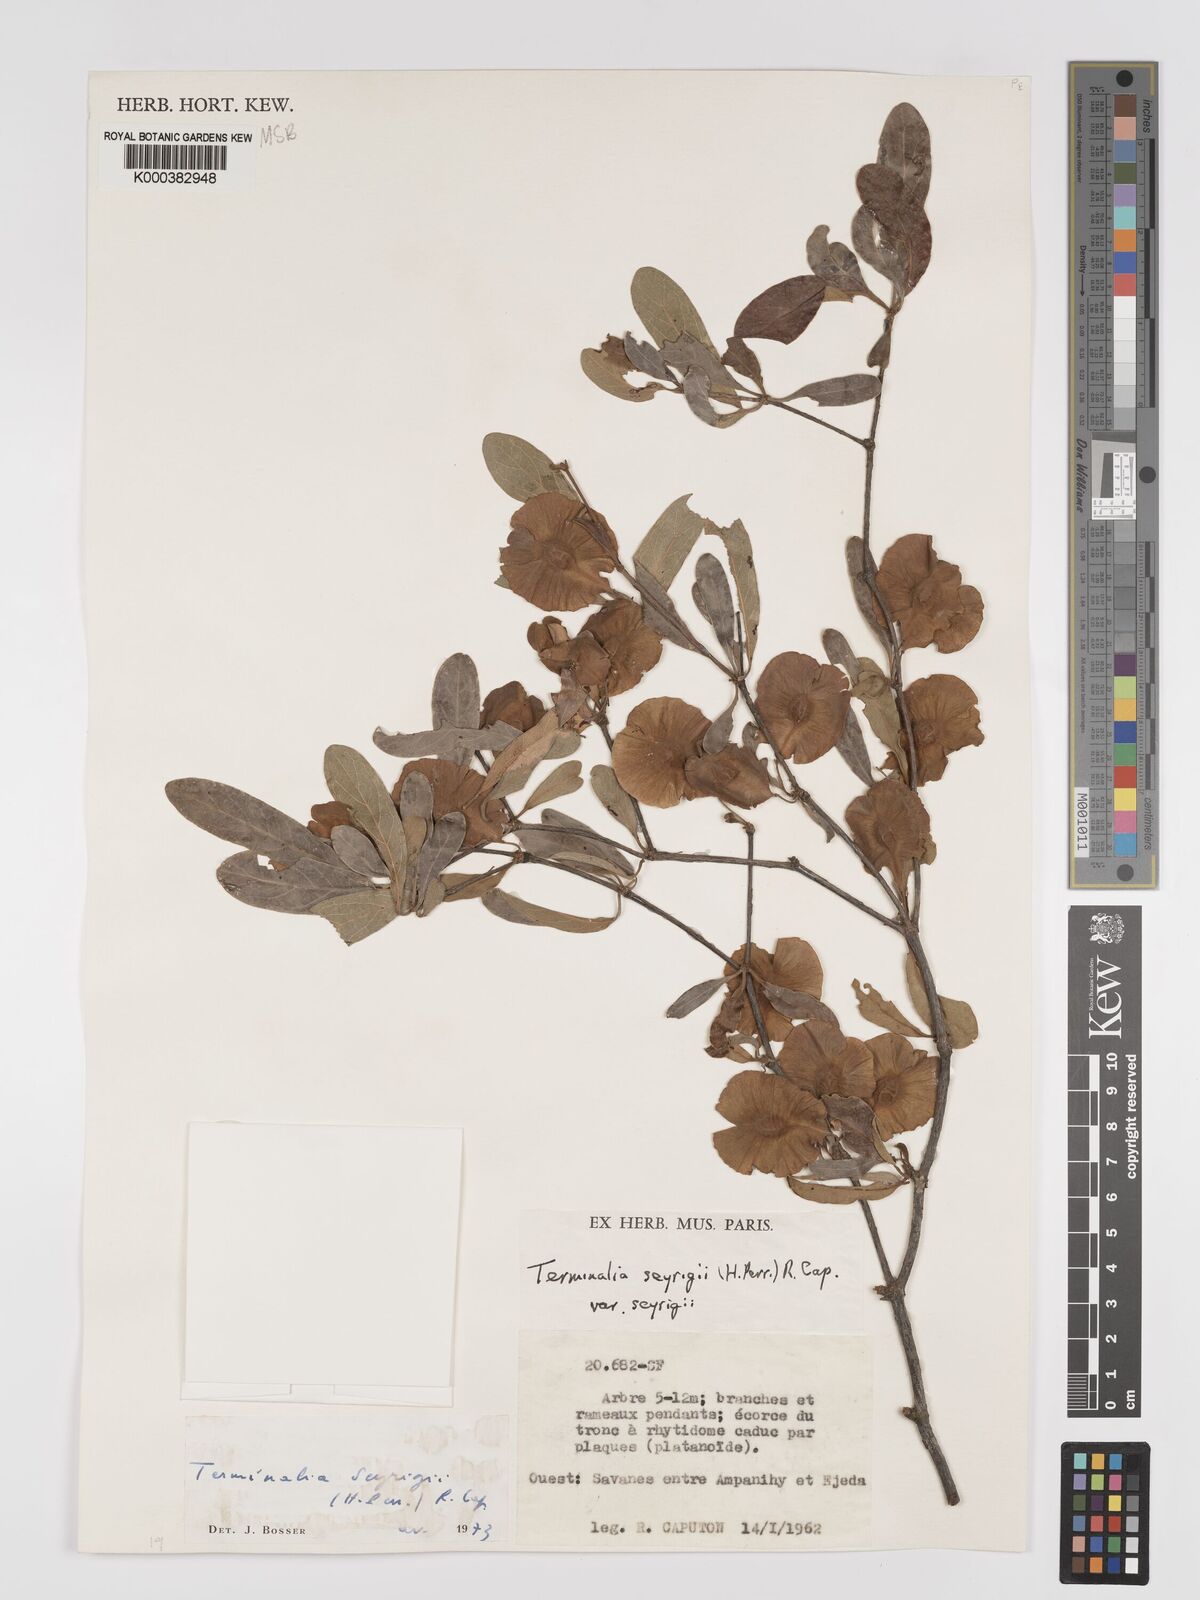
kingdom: Plantae
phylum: Tracheophyta
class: Magnoliopsida
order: Myrtales
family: Combretaceae
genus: Terminalia
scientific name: Terminalia
